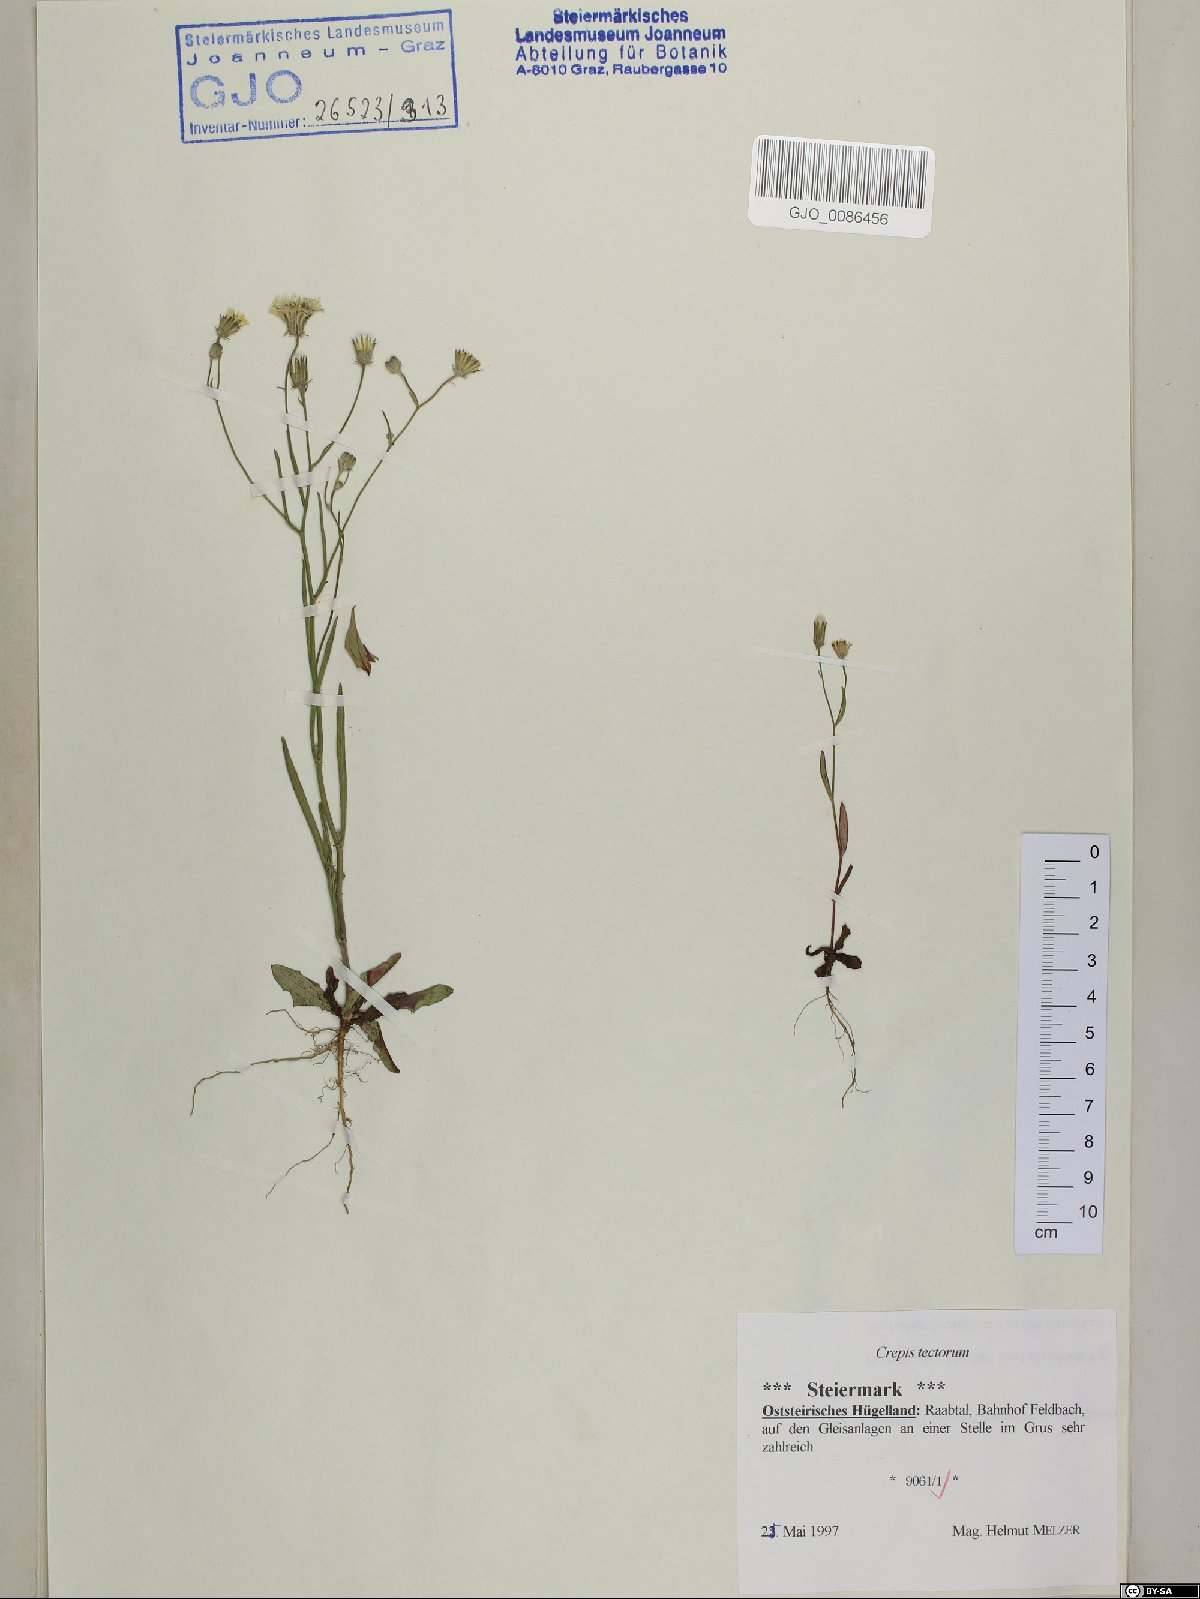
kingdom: Plantae
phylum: Tracheophyta
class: Magnoliopsida
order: Asterales
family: Asteraceae
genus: Crepis
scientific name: Crepis tectorum
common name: Narrow-leaved hawk's-beard
